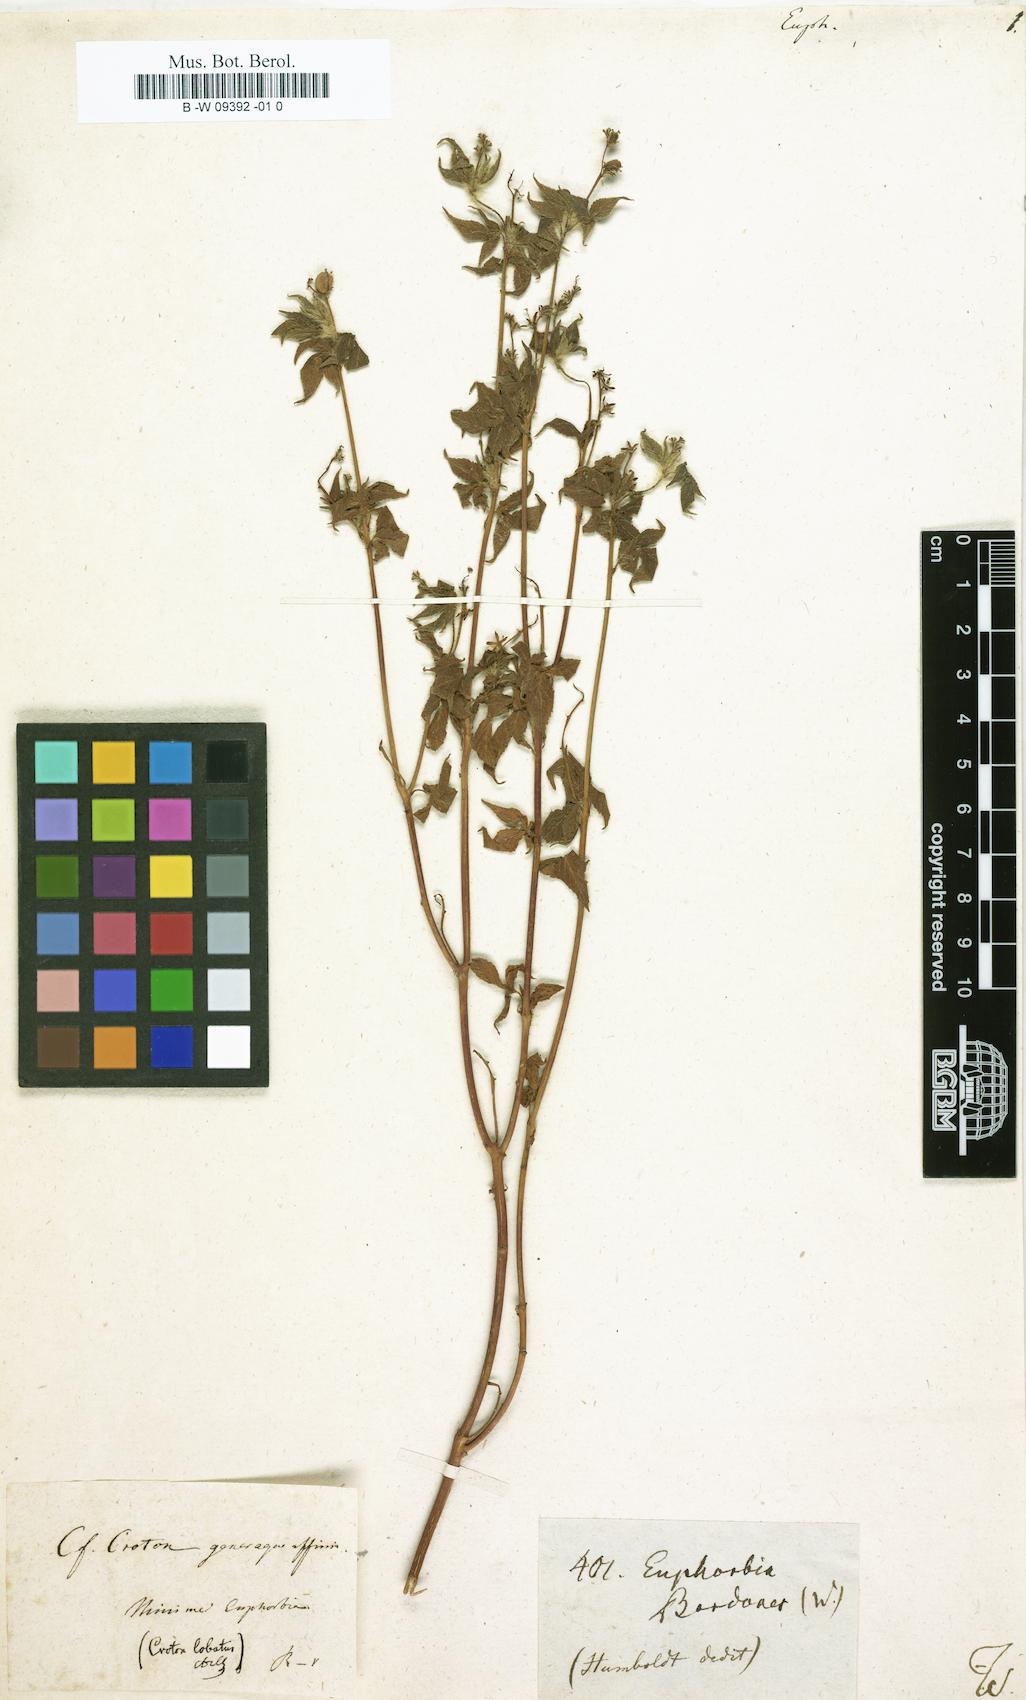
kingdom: Plantae
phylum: Tracheophyta
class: Magnoliopsida
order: Malpighiales
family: Euphorbiaceae
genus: Euphorbia
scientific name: Euphorbia
